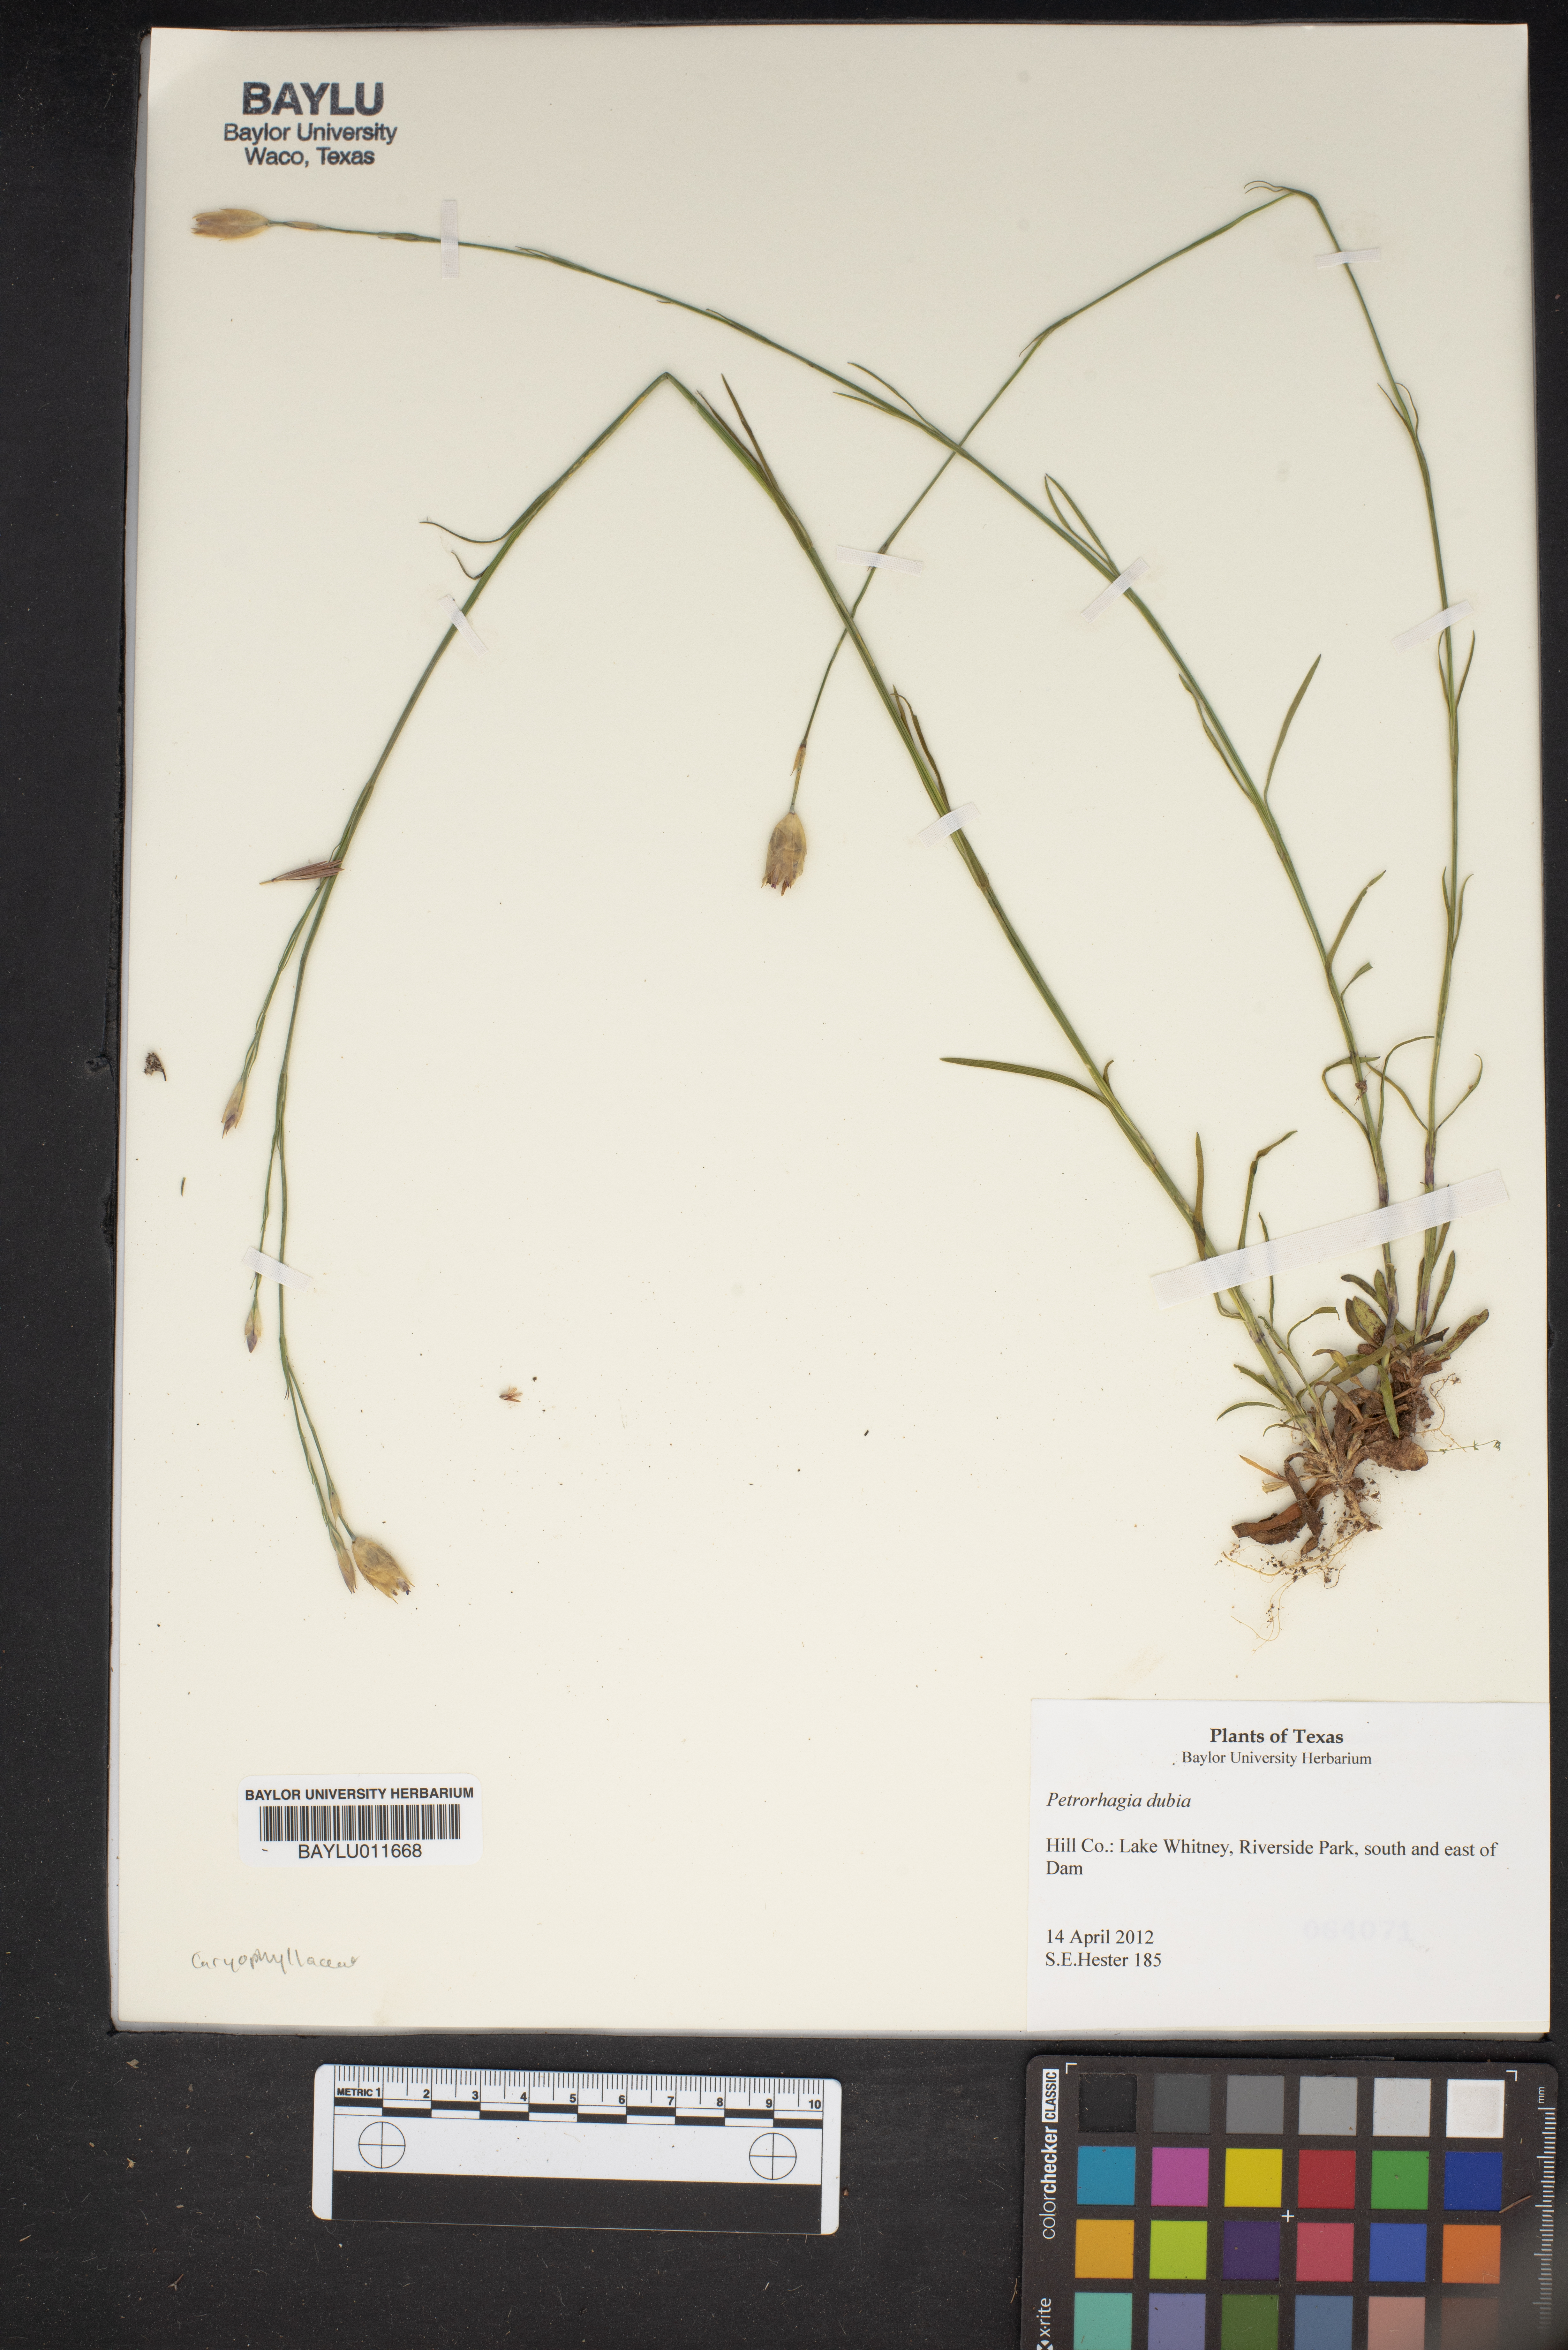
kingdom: Plantae
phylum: Tracheophyta
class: Magnoliopsida
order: Caryophyllales
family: Caryophyllaceae
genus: Petrorhagia
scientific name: Petrorhagia dubia
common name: Hairypink
